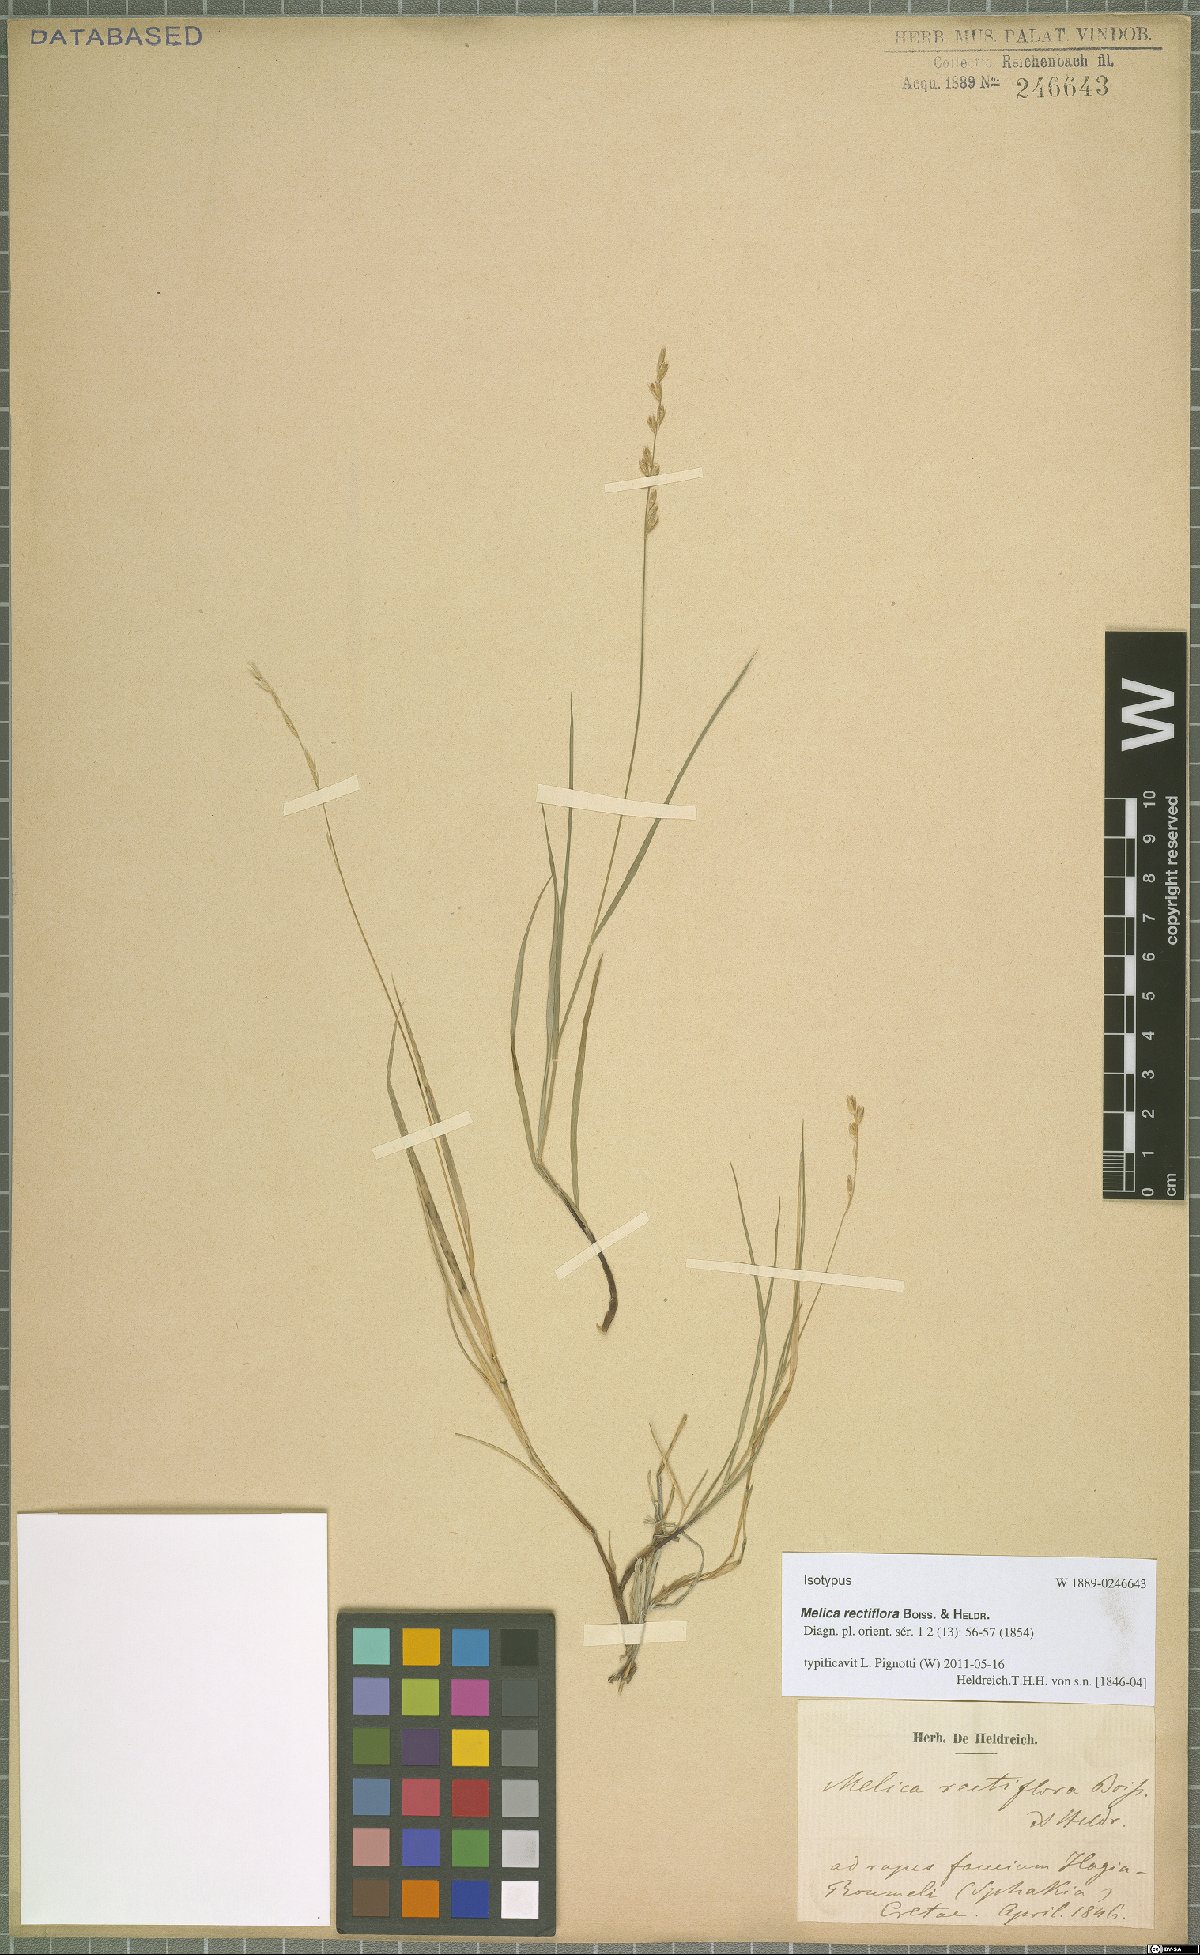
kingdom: Plantae
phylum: Tracheophyta
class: Liliopsida
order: Poales
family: Poaceae
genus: Melica
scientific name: Melica rectiflora
